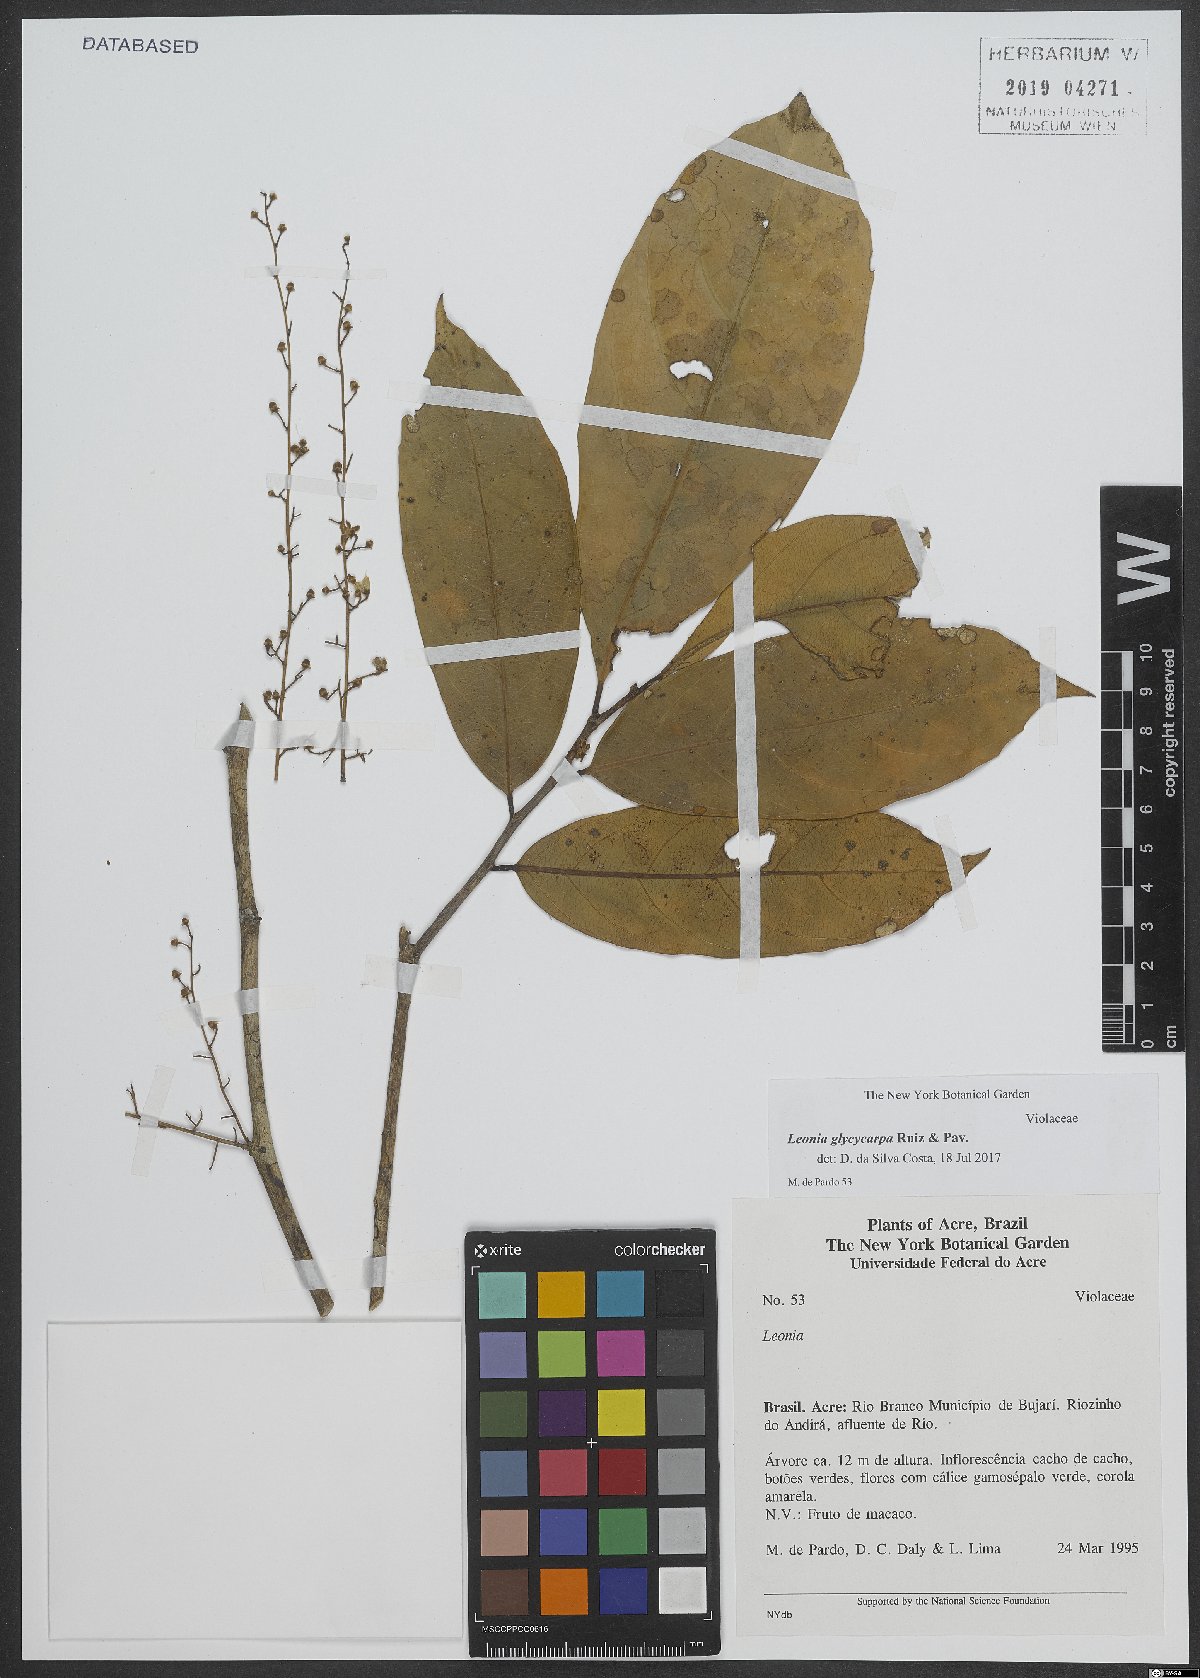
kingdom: Plantae
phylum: Tracheophyta
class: Magnoliopsida
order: Malpighiales
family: Violaceae
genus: Leonia
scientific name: Leonia glycycarpa
